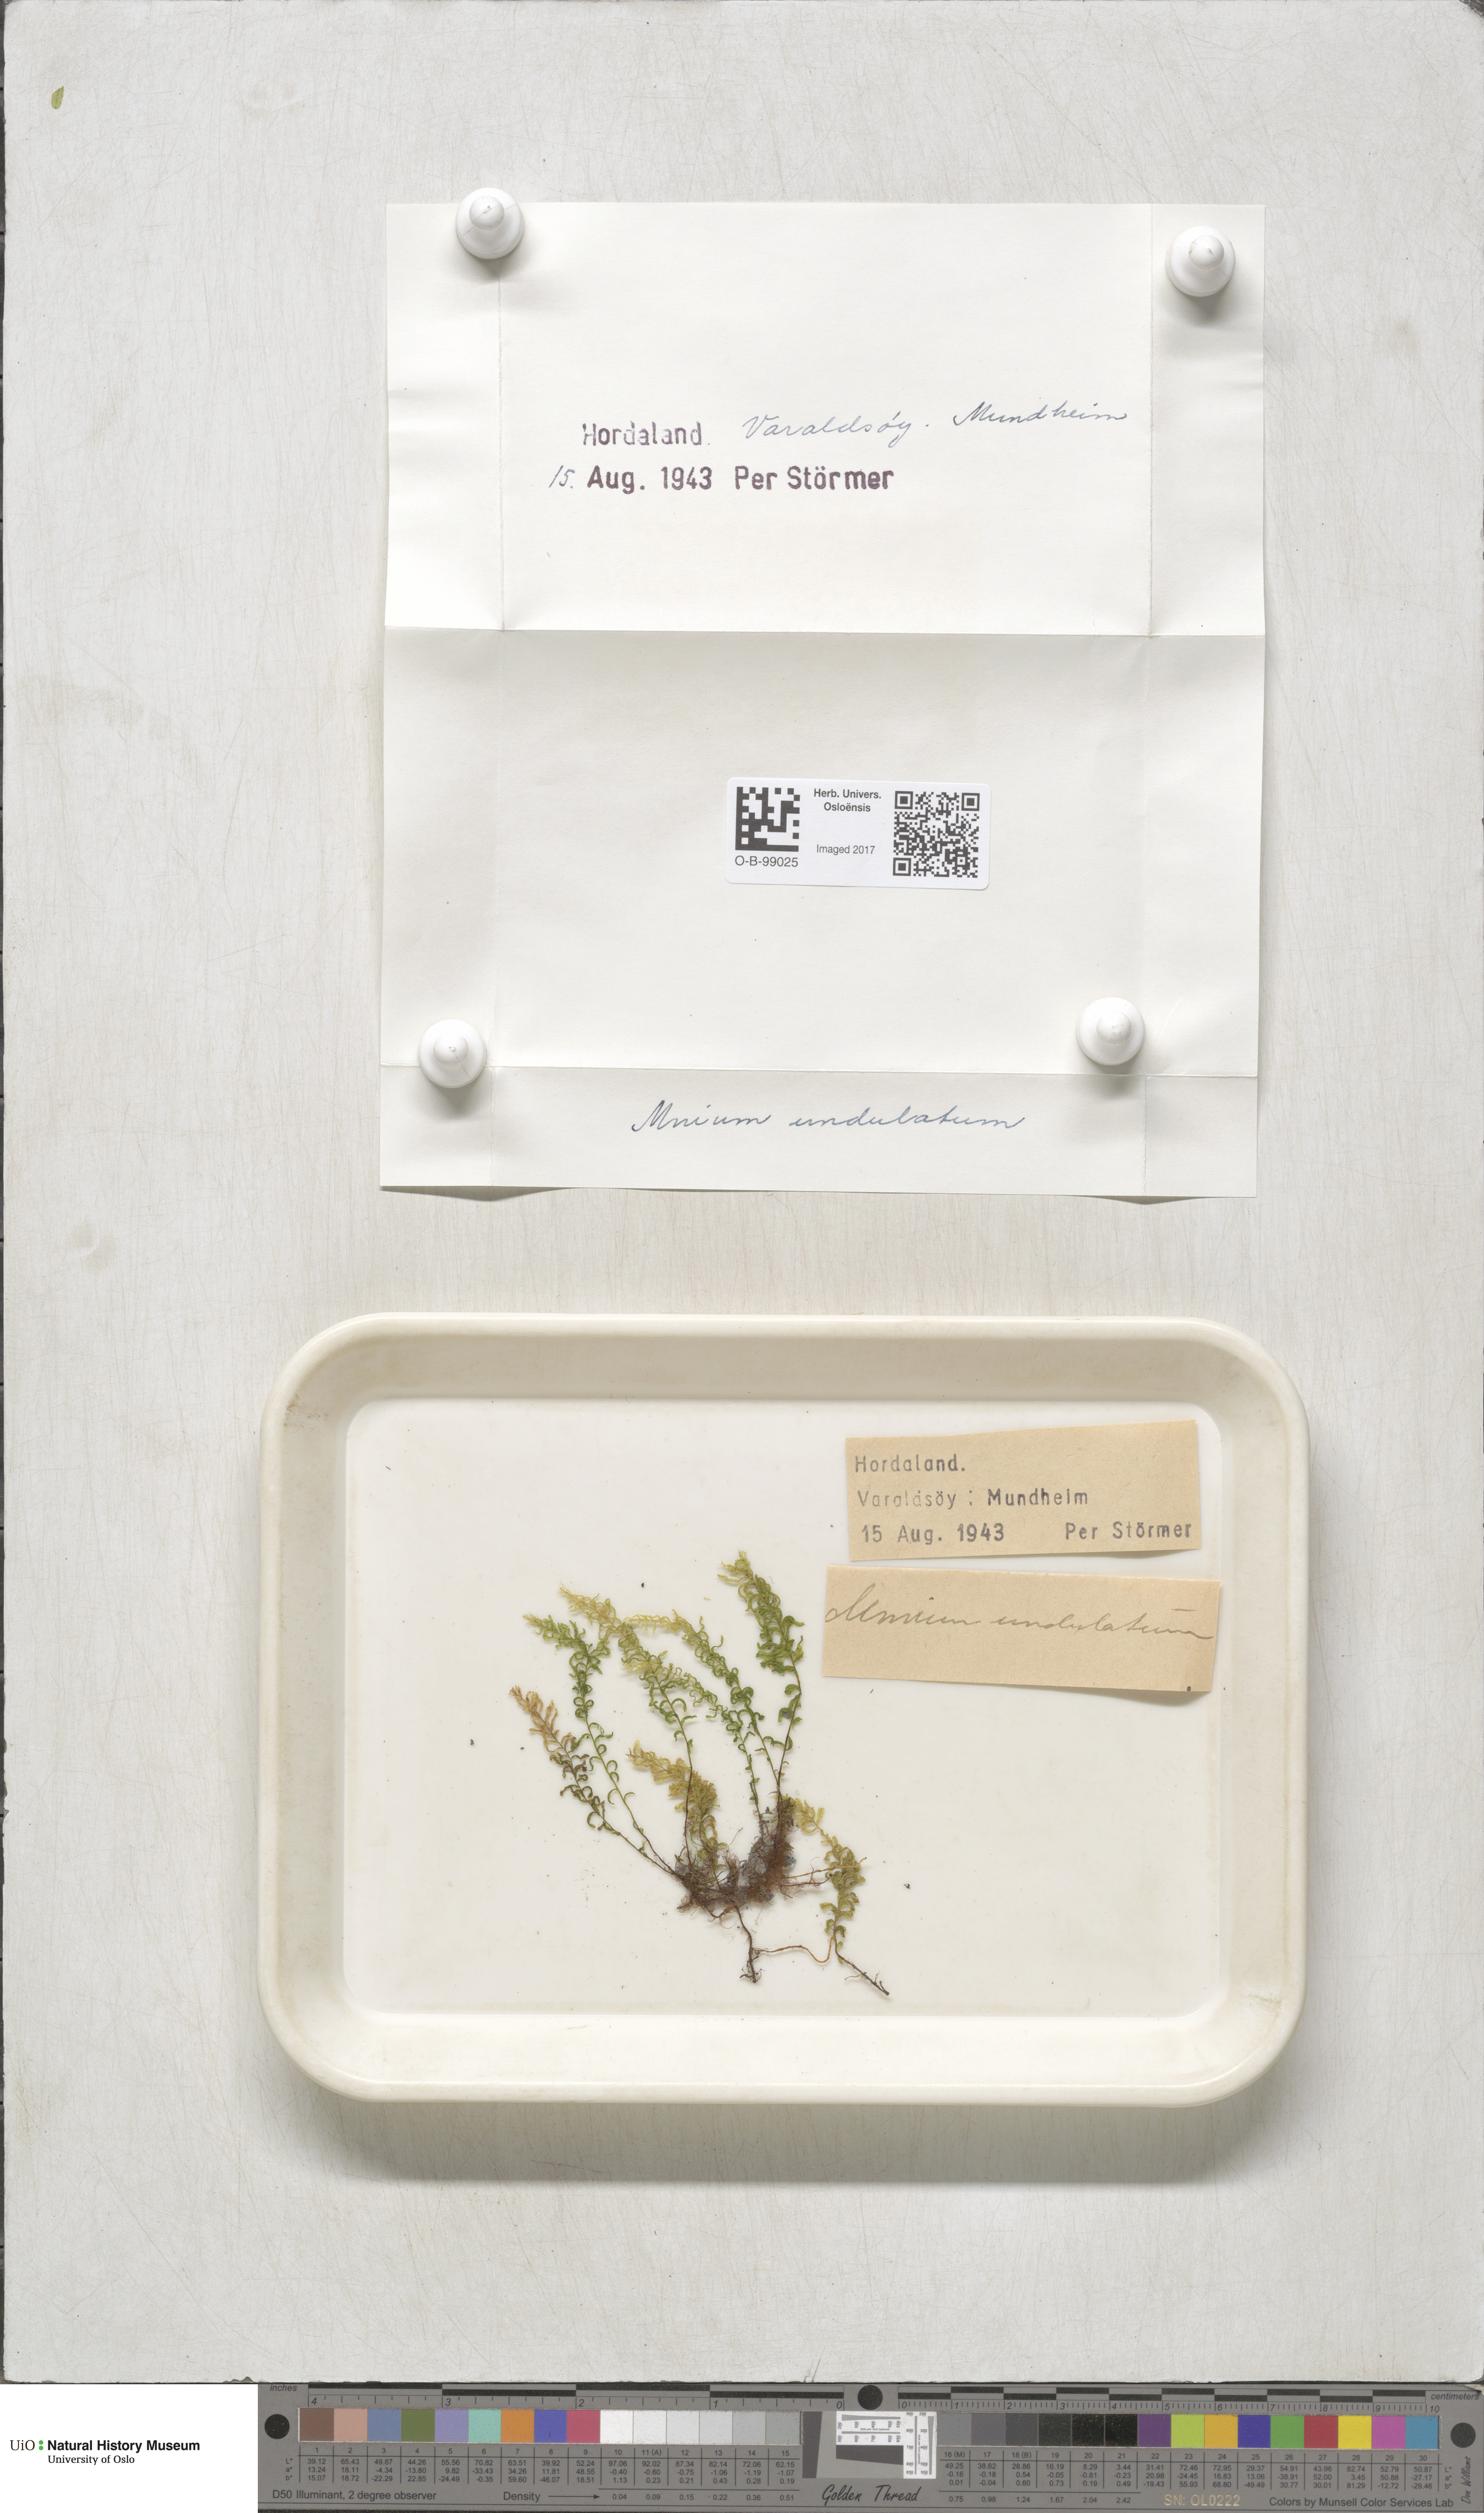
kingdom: Plantae
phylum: Bryophyta
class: Bryopsida
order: Bryales
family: Mniaceae
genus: Plagiomnium
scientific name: Plagiomnium undulatum
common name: Hart's-tongue thyme-moss
